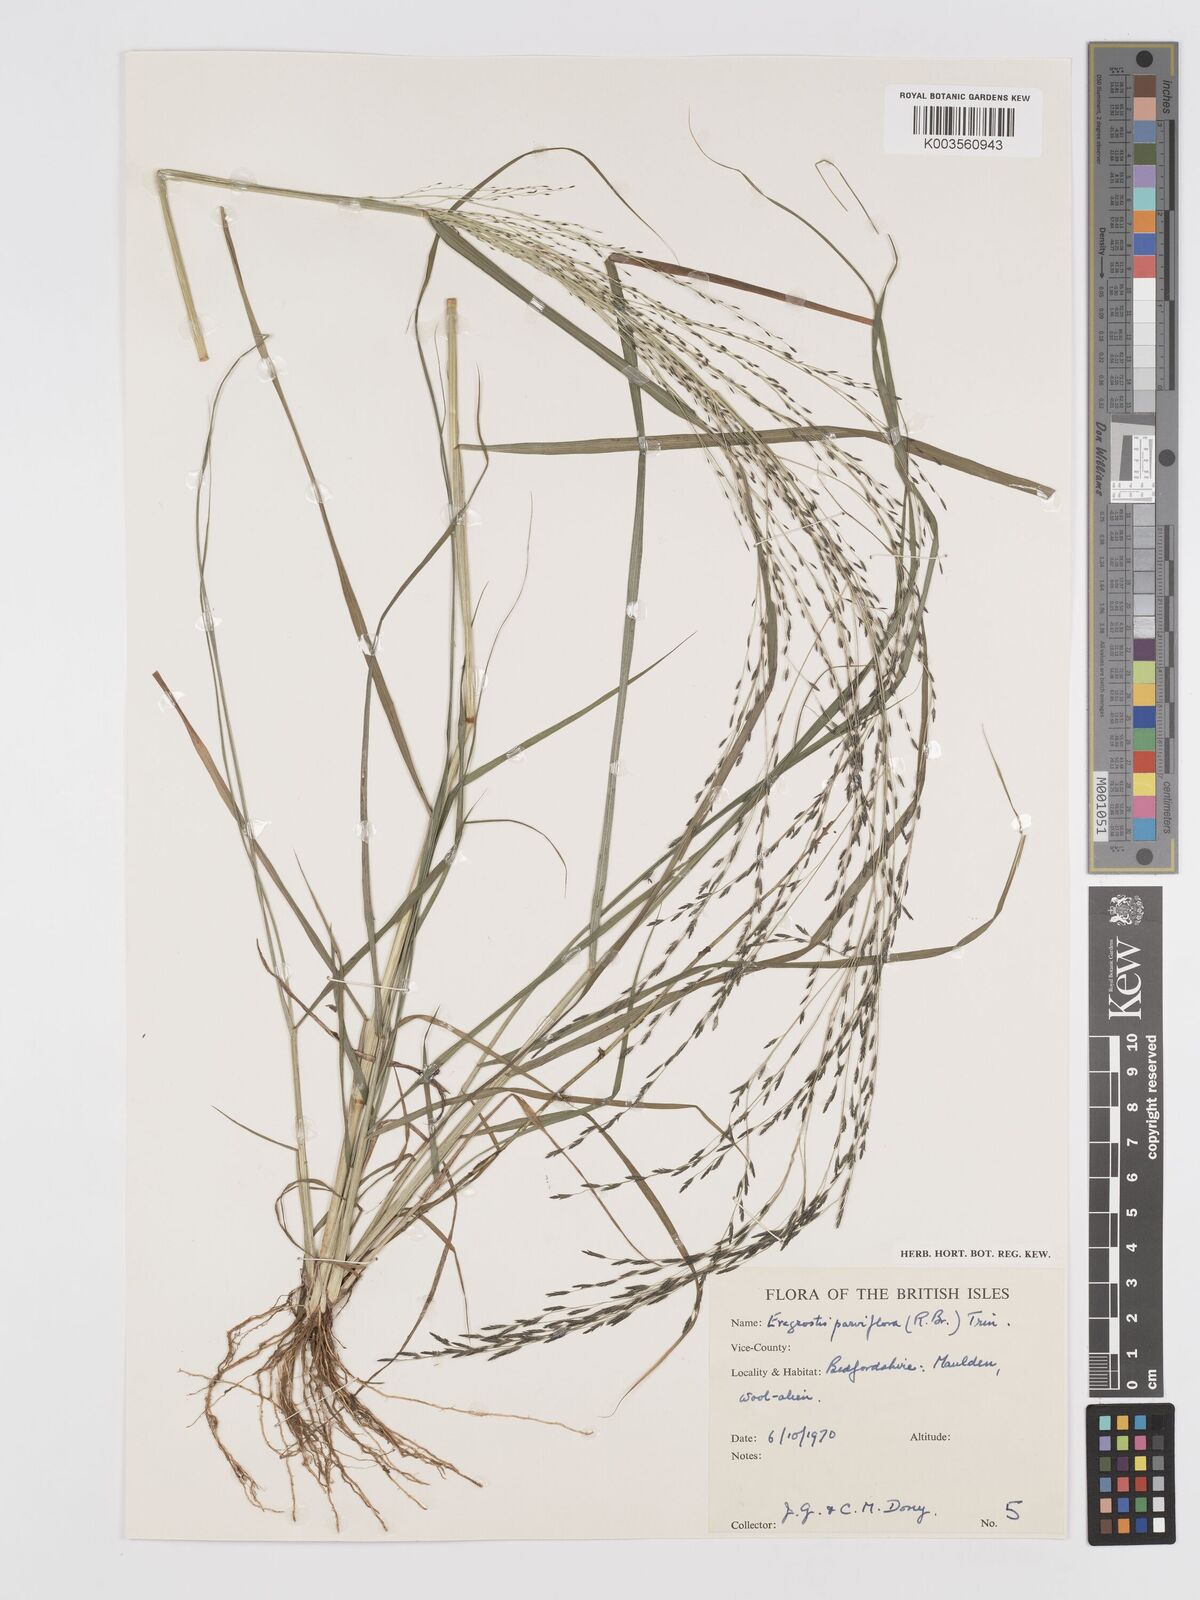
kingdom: Plantae
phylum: Tracheophyta
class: Liliopsida
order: Poales
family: Poaceae
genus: Eragrostis
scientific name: Eragrostis parviflora
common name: Weeping love-grass
